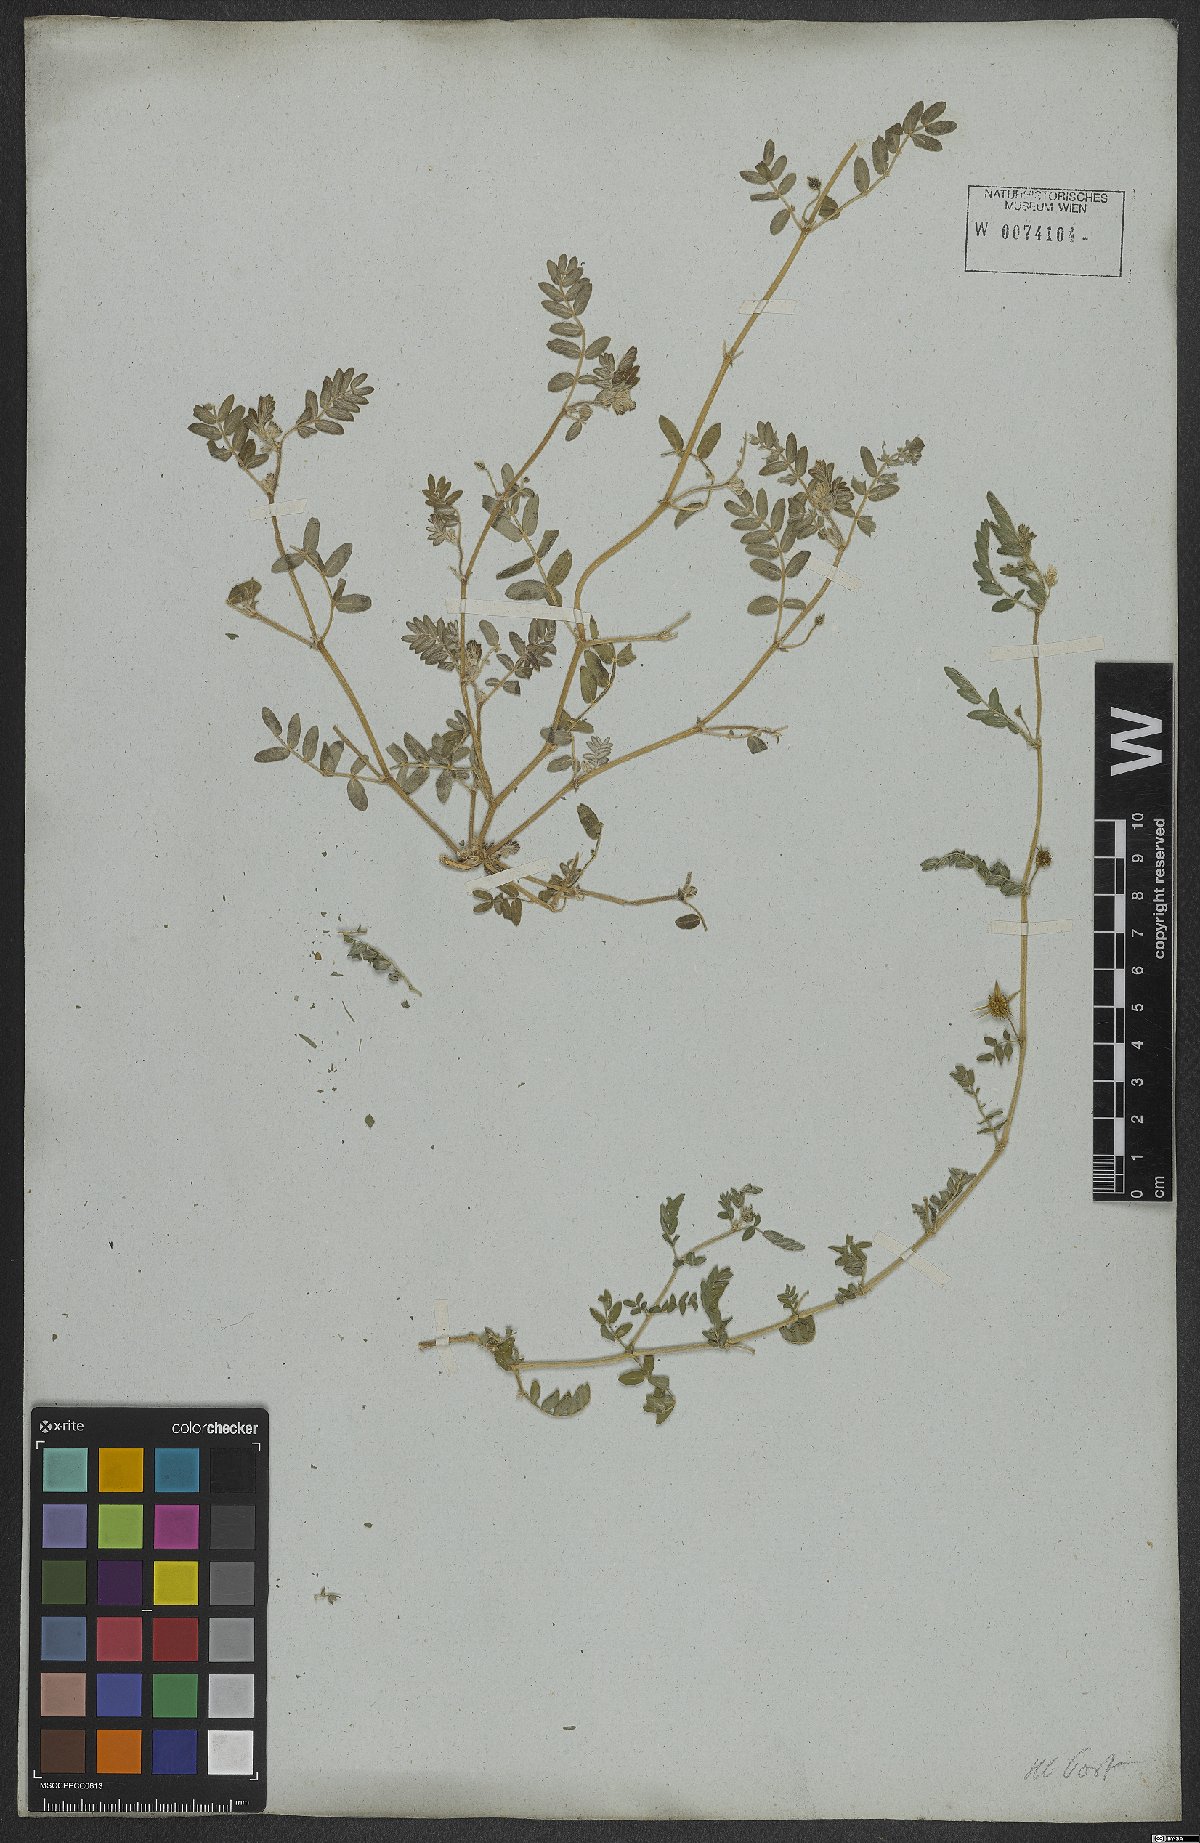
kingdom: Plantae
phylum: Tracheophyta
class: Magnoliopsida
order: Zygophyllales
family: Zygophyllaceae
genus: Tribulus
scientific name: Tribulus terrestris
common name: Puncturevine
